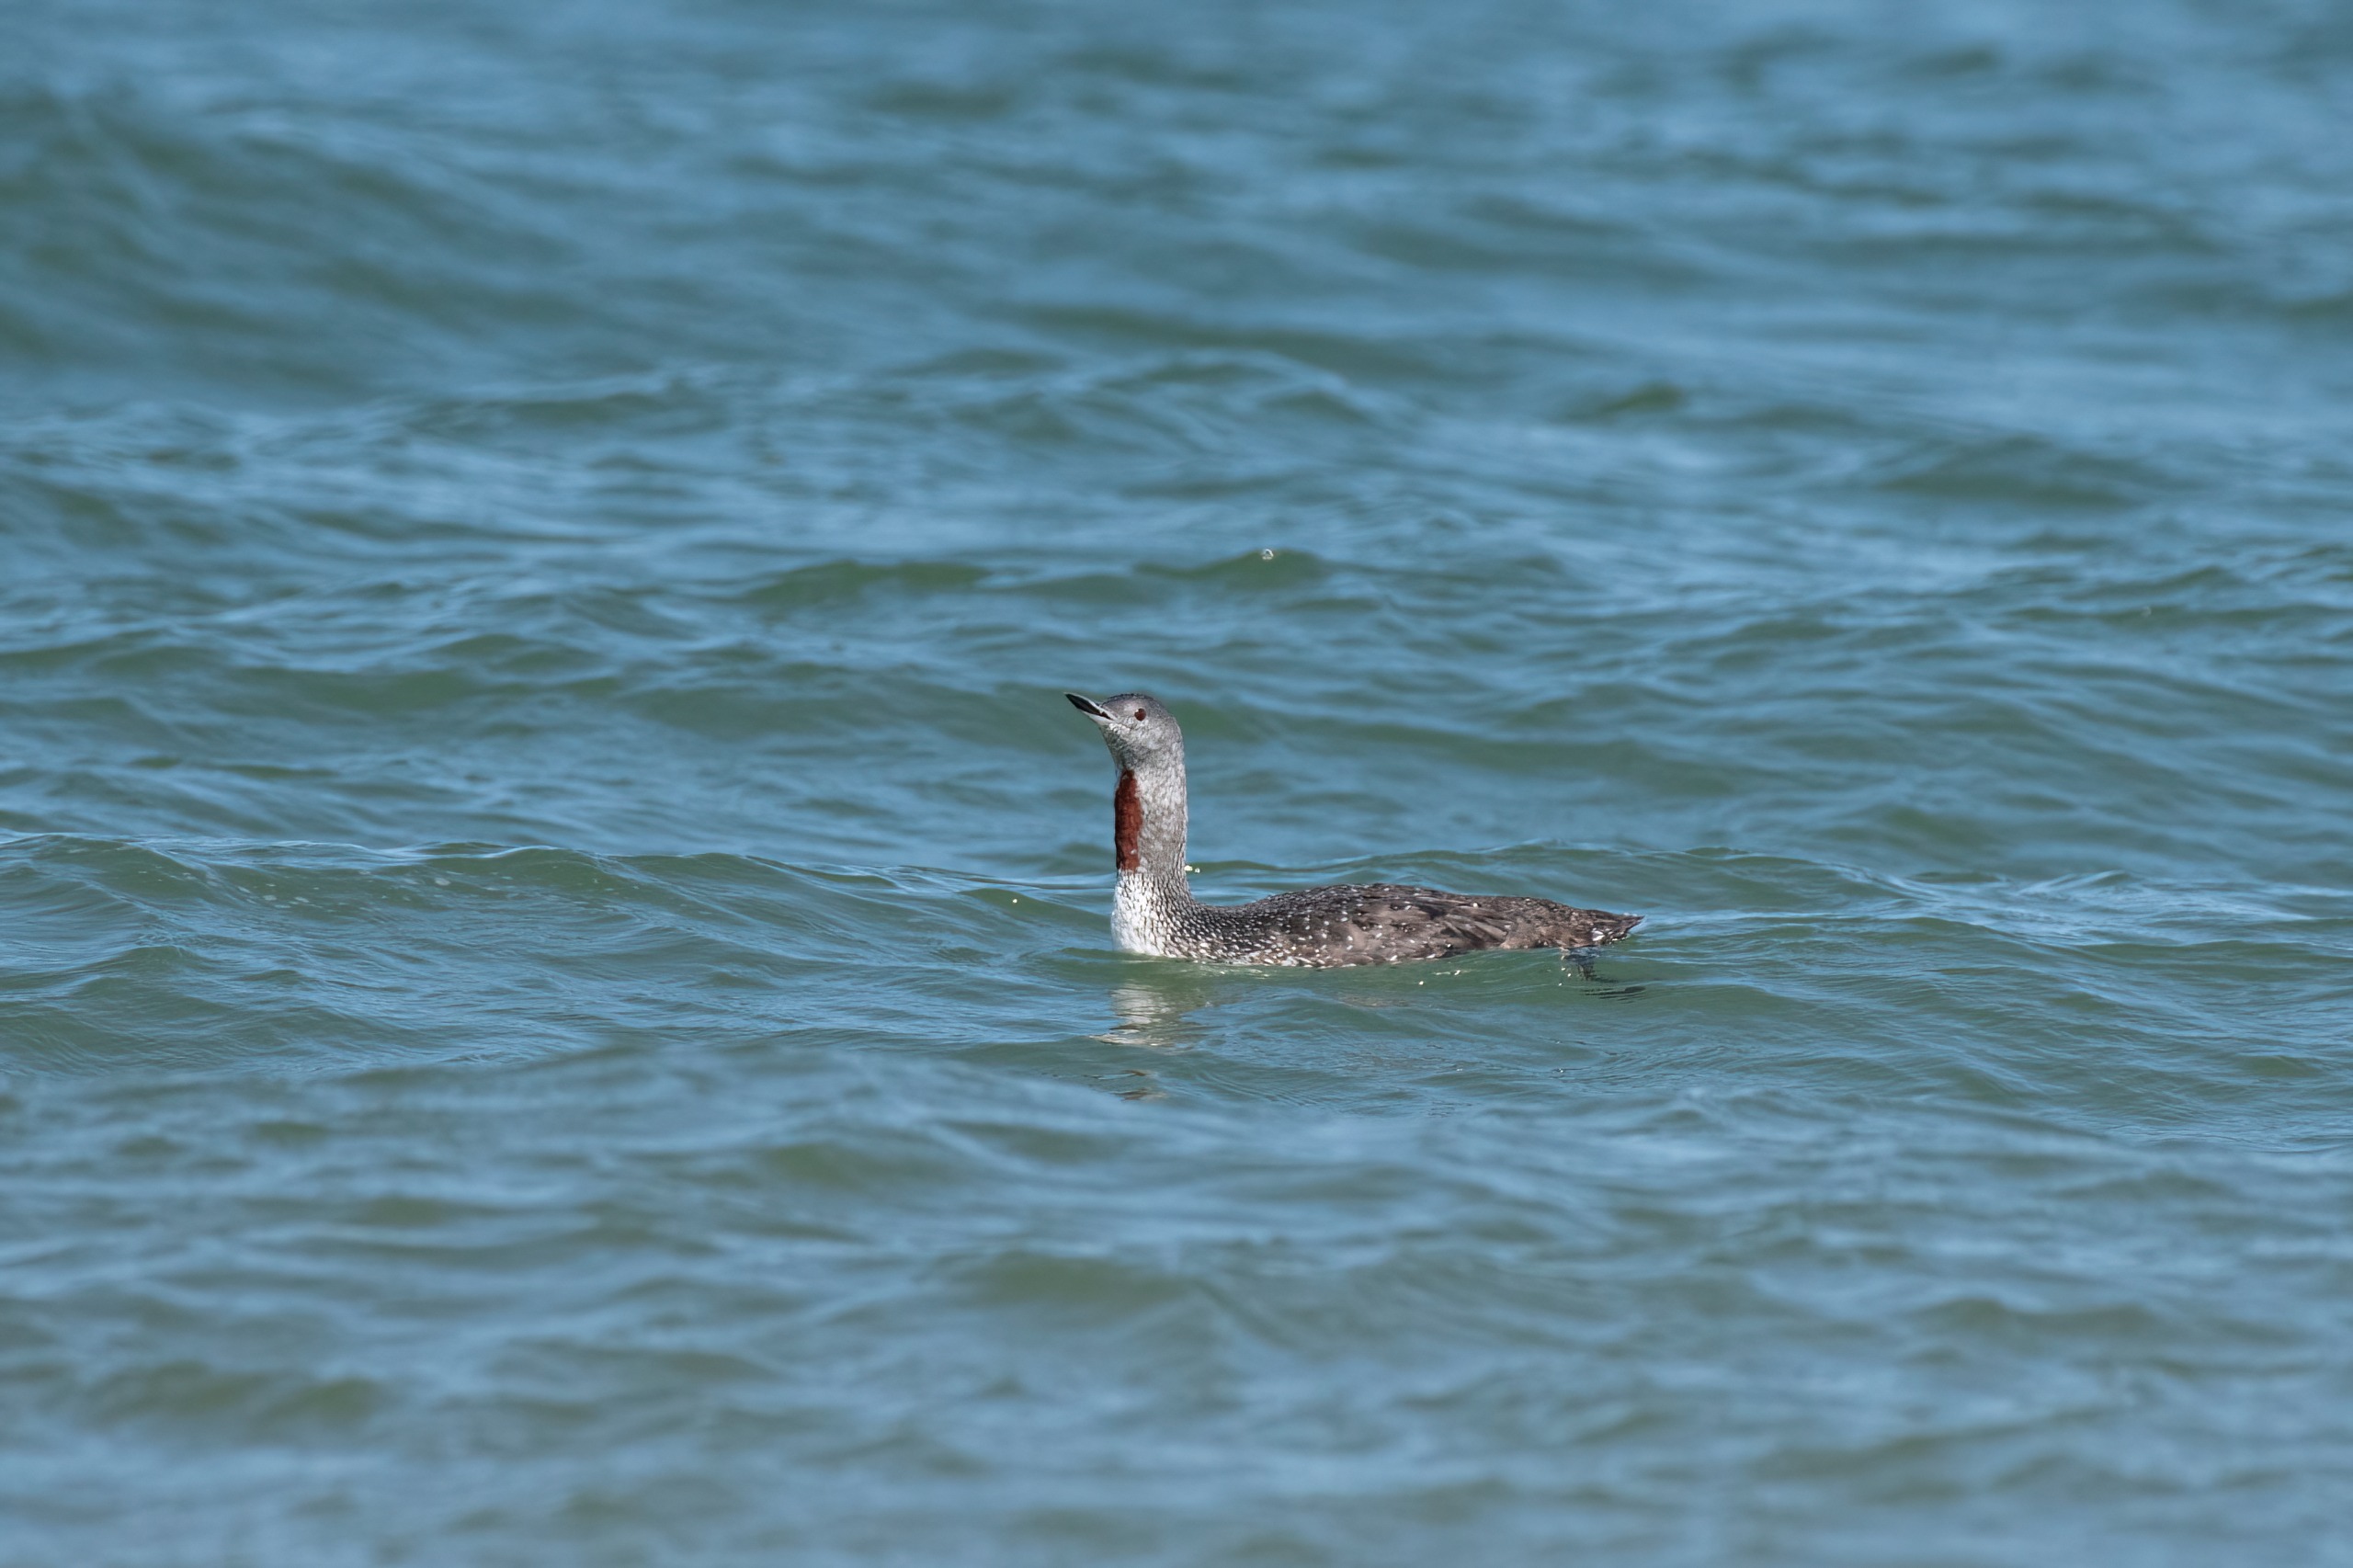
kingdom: Animalia
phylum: Chordata
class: Aves
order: Gaviiformes
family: Gaviidae
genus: Gavia
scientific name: Gavia stellata
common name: Rødstrubet lom
